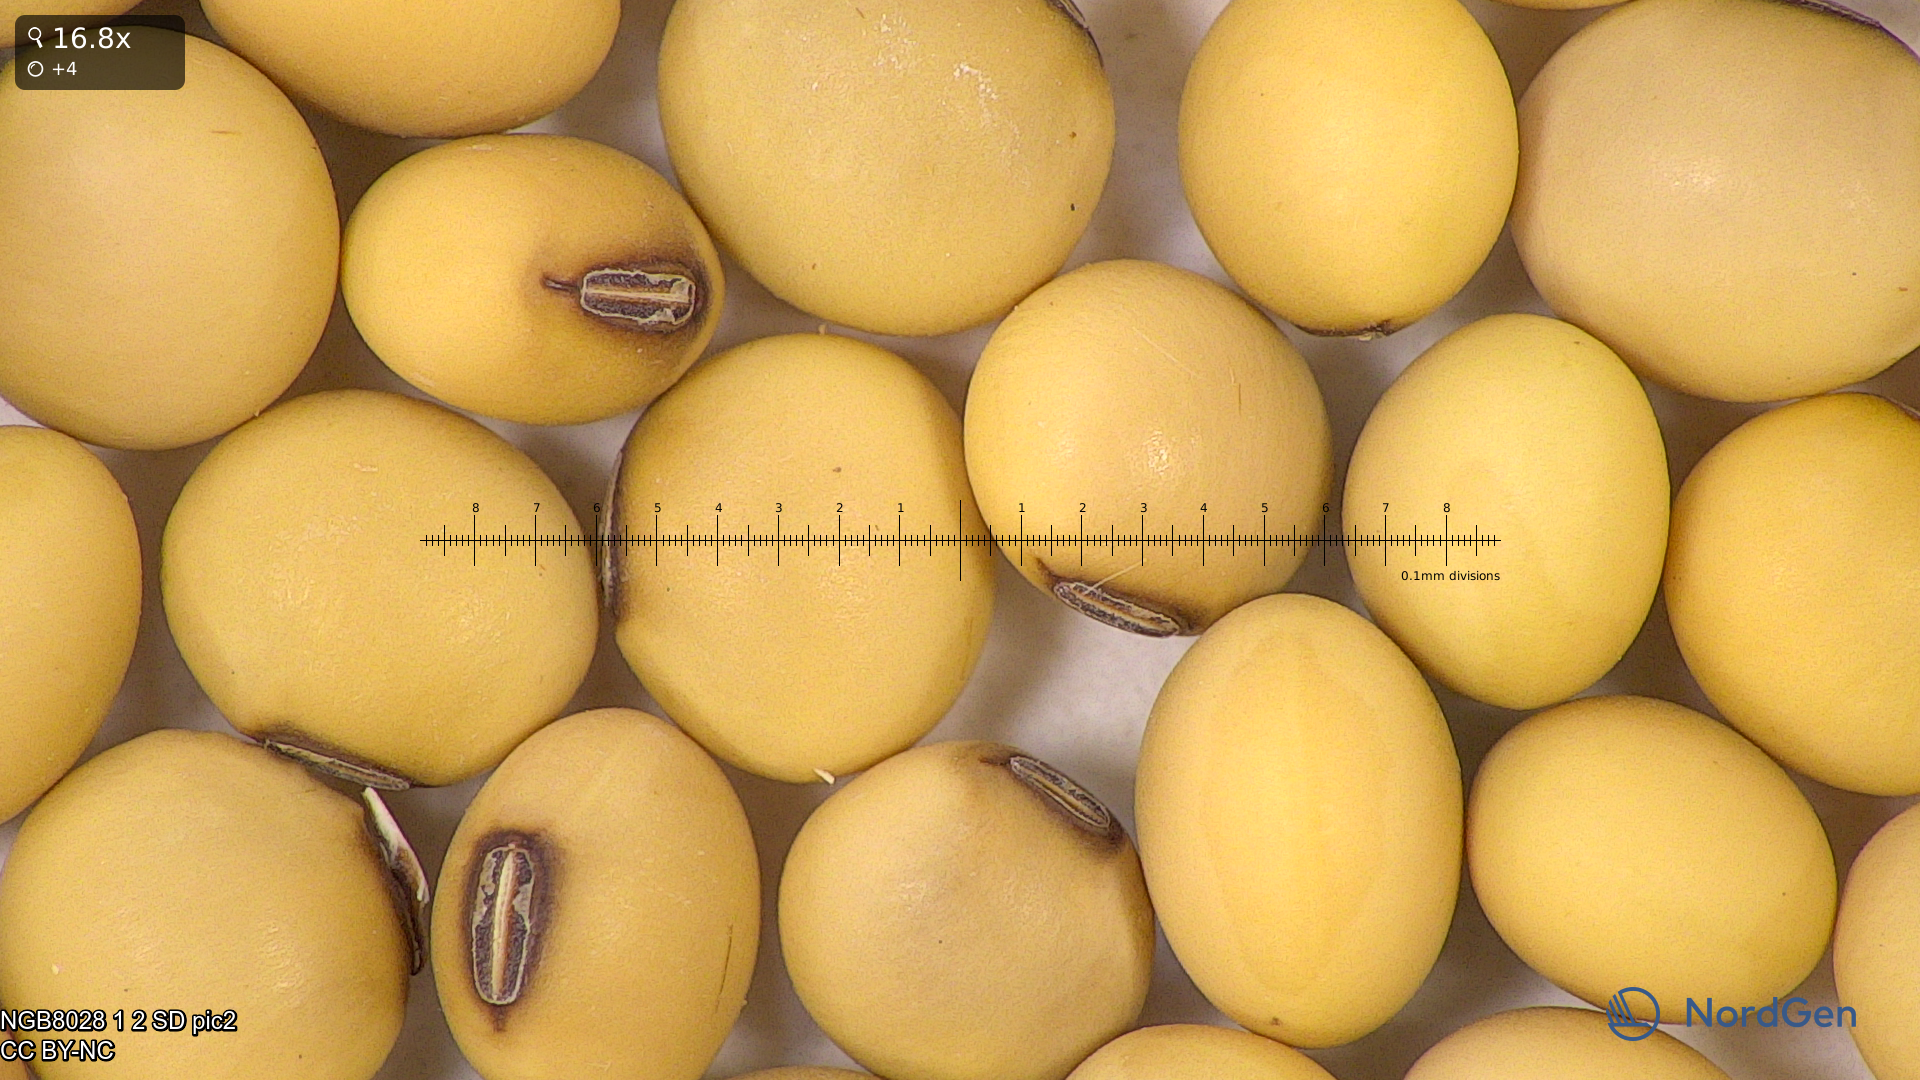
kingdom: Plantae
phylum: Tracheophyta
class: Magnoliopsida
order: Fabales
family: Fabaceae
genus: Glycine
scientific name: Glycine max
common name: Soya-bean
